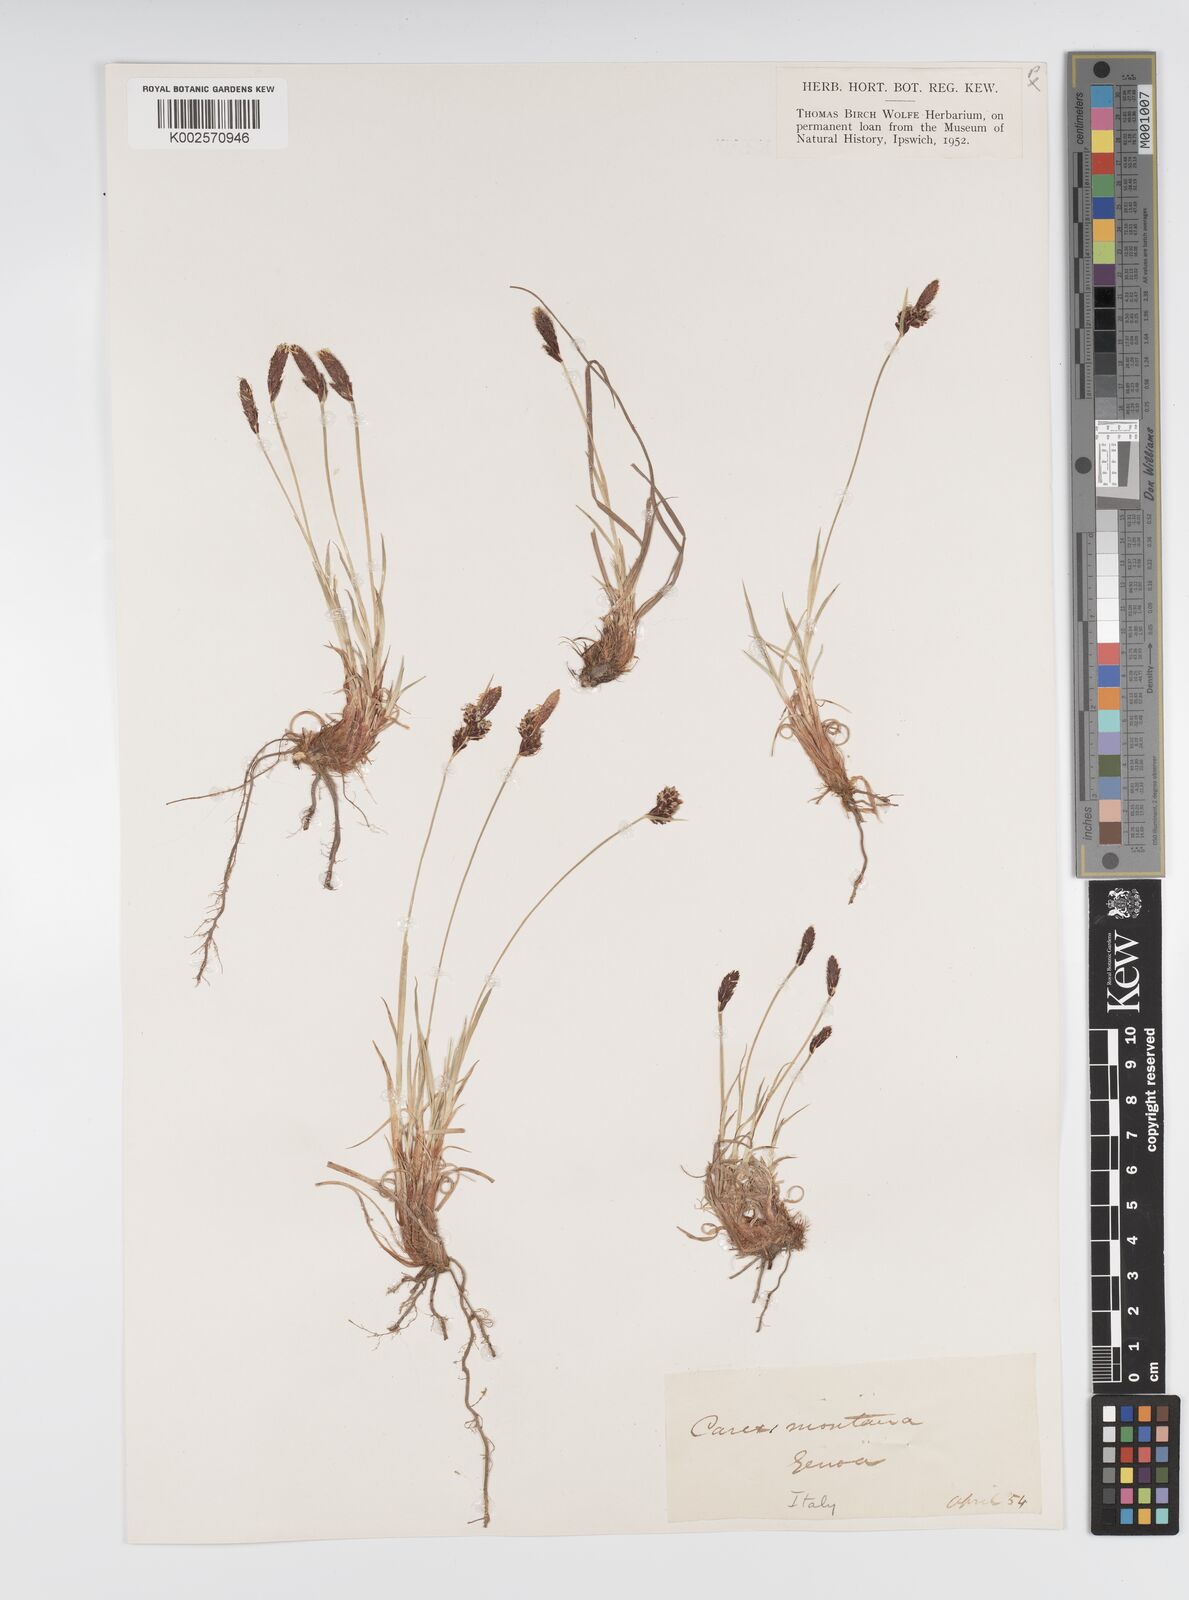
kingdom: Plantae
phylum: Tracheophyta
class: Liliopsida
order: Poales
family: Cyperaceae
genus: Carex
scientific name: Carex montana
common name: Soft-leaved sedge
